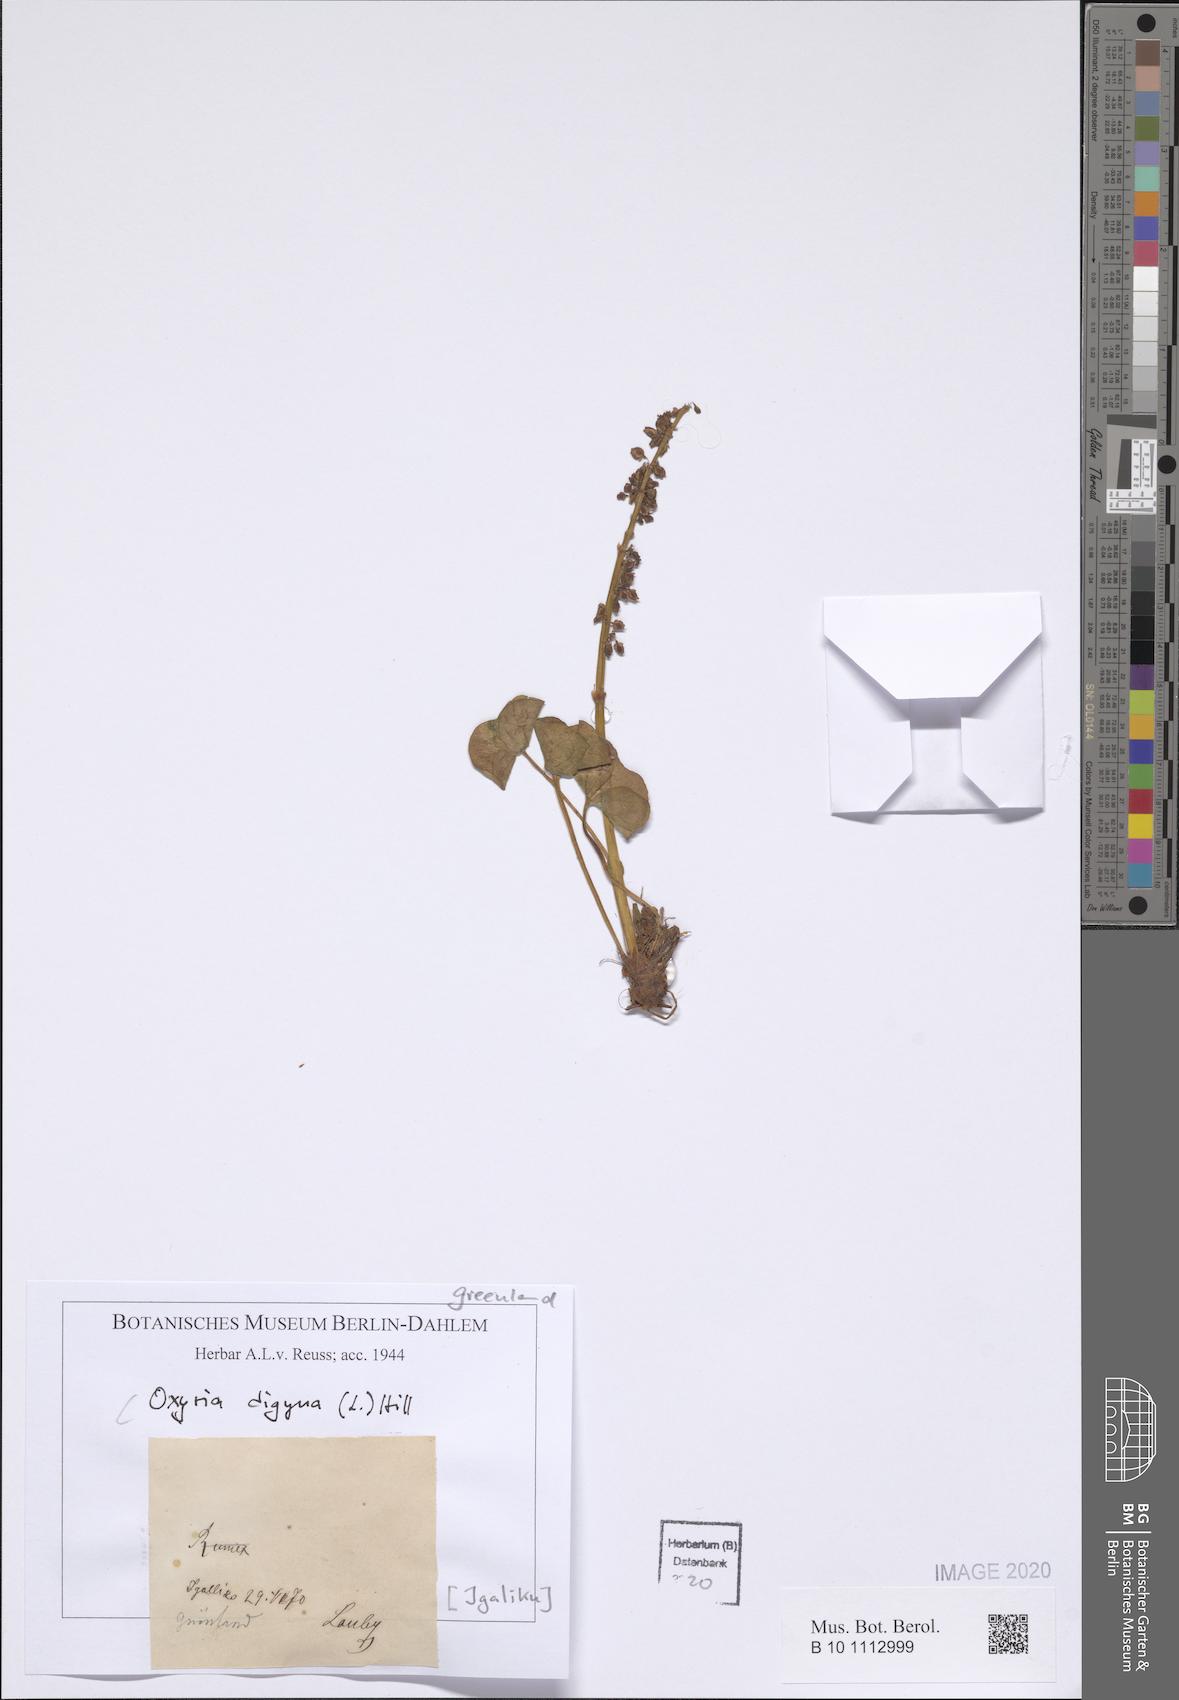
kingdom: Plantae
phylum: Tracheophyta
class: Magnoliopsida
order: Caryophyllales
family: Polygonaceae
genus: Oxyria
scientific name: Oxyria digyna
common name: Alpine mountain-sorrel
